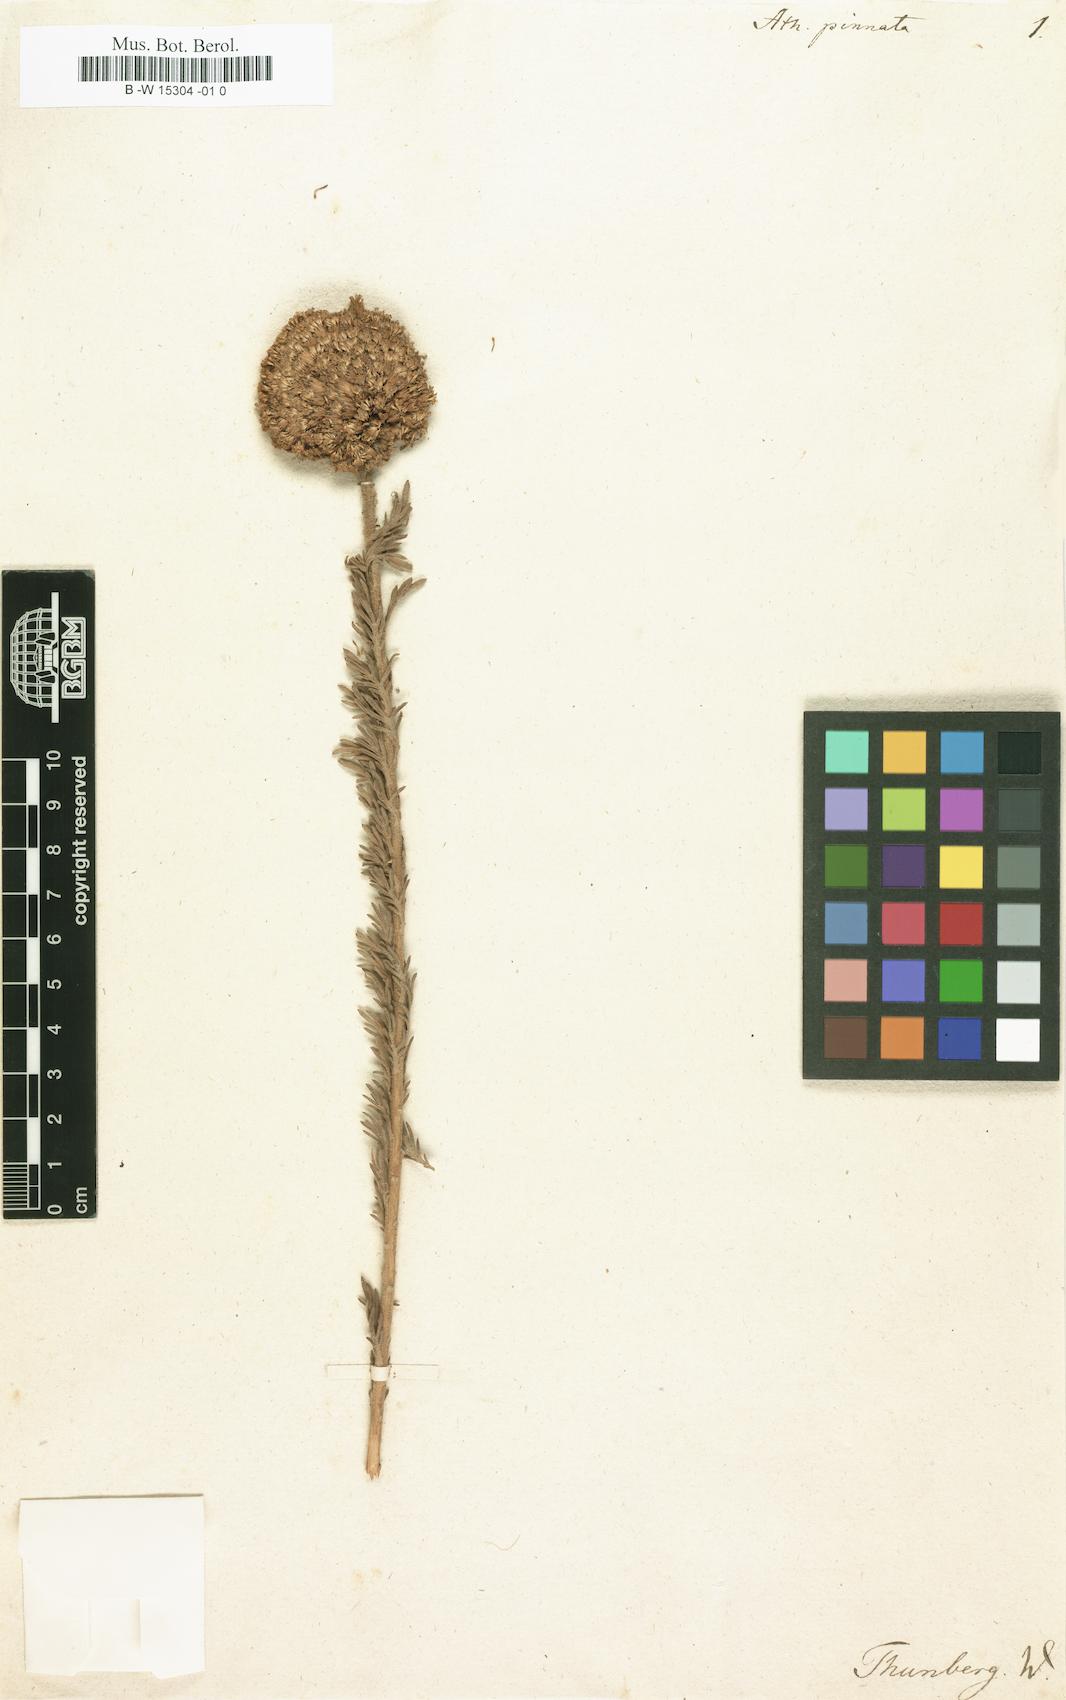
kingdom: Plantae
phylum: Tracheophyta
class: Magnoliopsida
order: Asterales
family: Asteraceae
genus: Athanasia
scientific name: Athanasia pinnata
